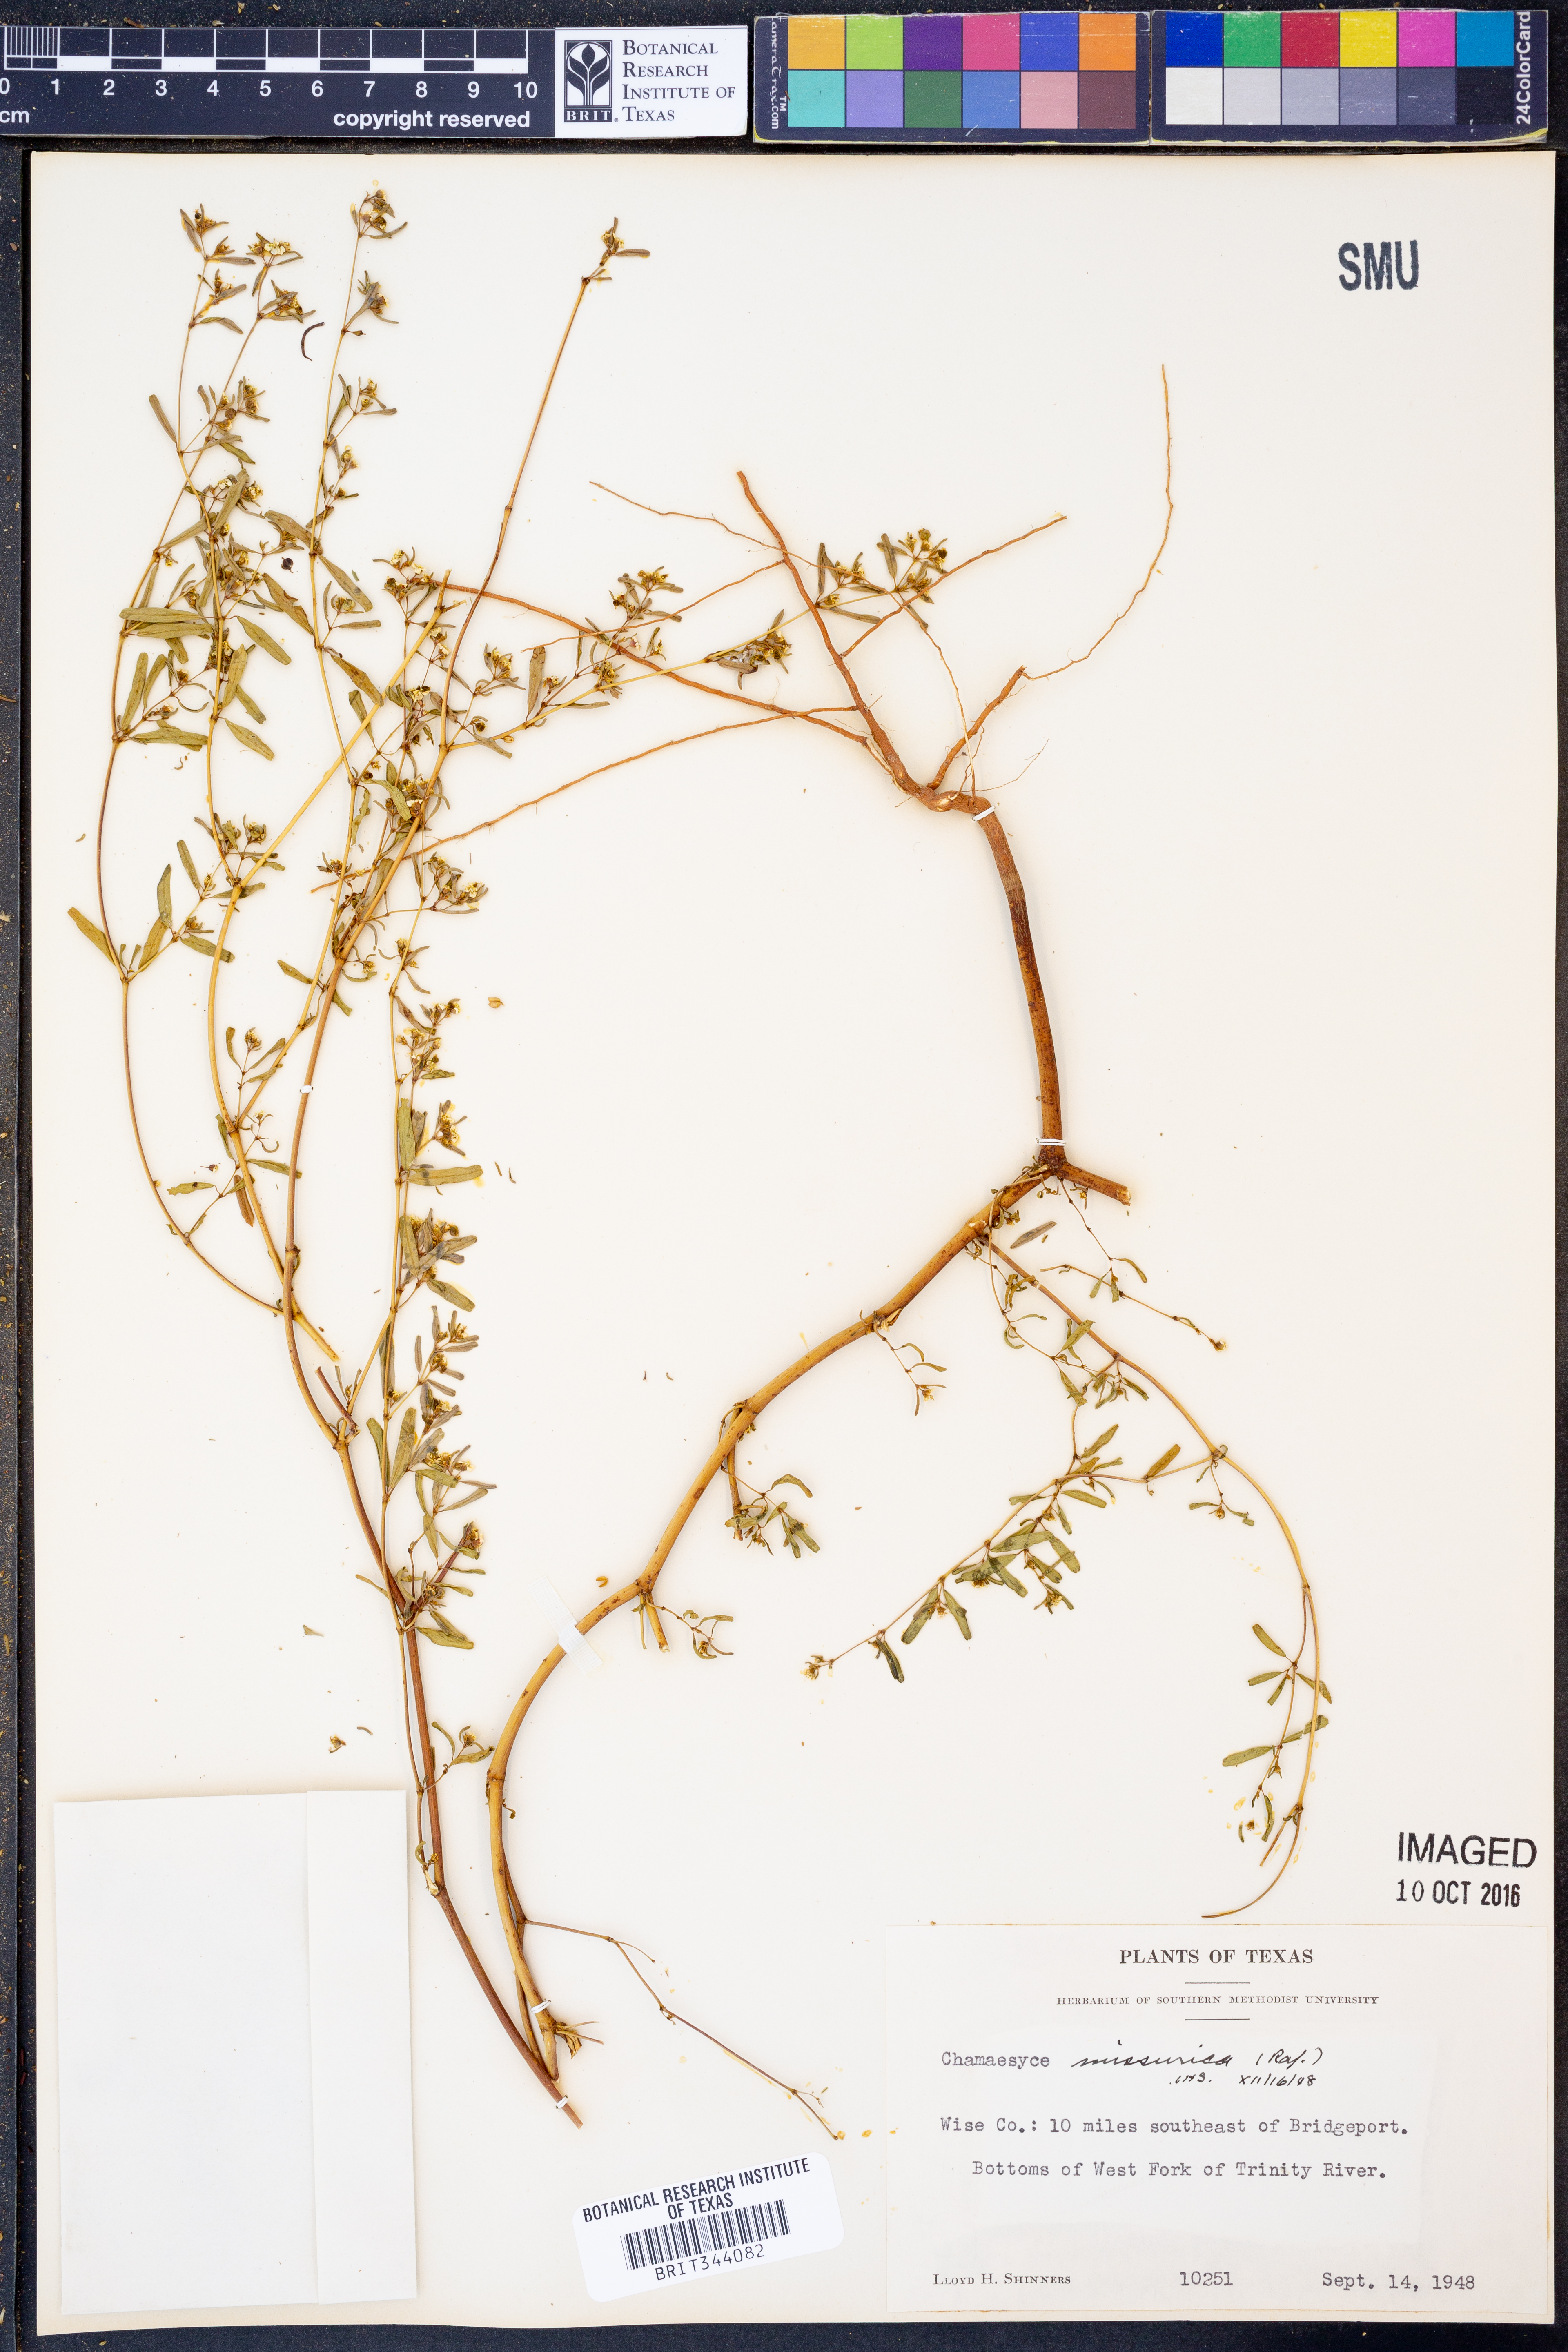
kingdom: Plantae
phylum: Tracheophyta
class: Magnoliopsida
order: Malpighiales
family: Euphorbiaceae
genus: Euphorbia
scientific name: Euphorbia missurica
